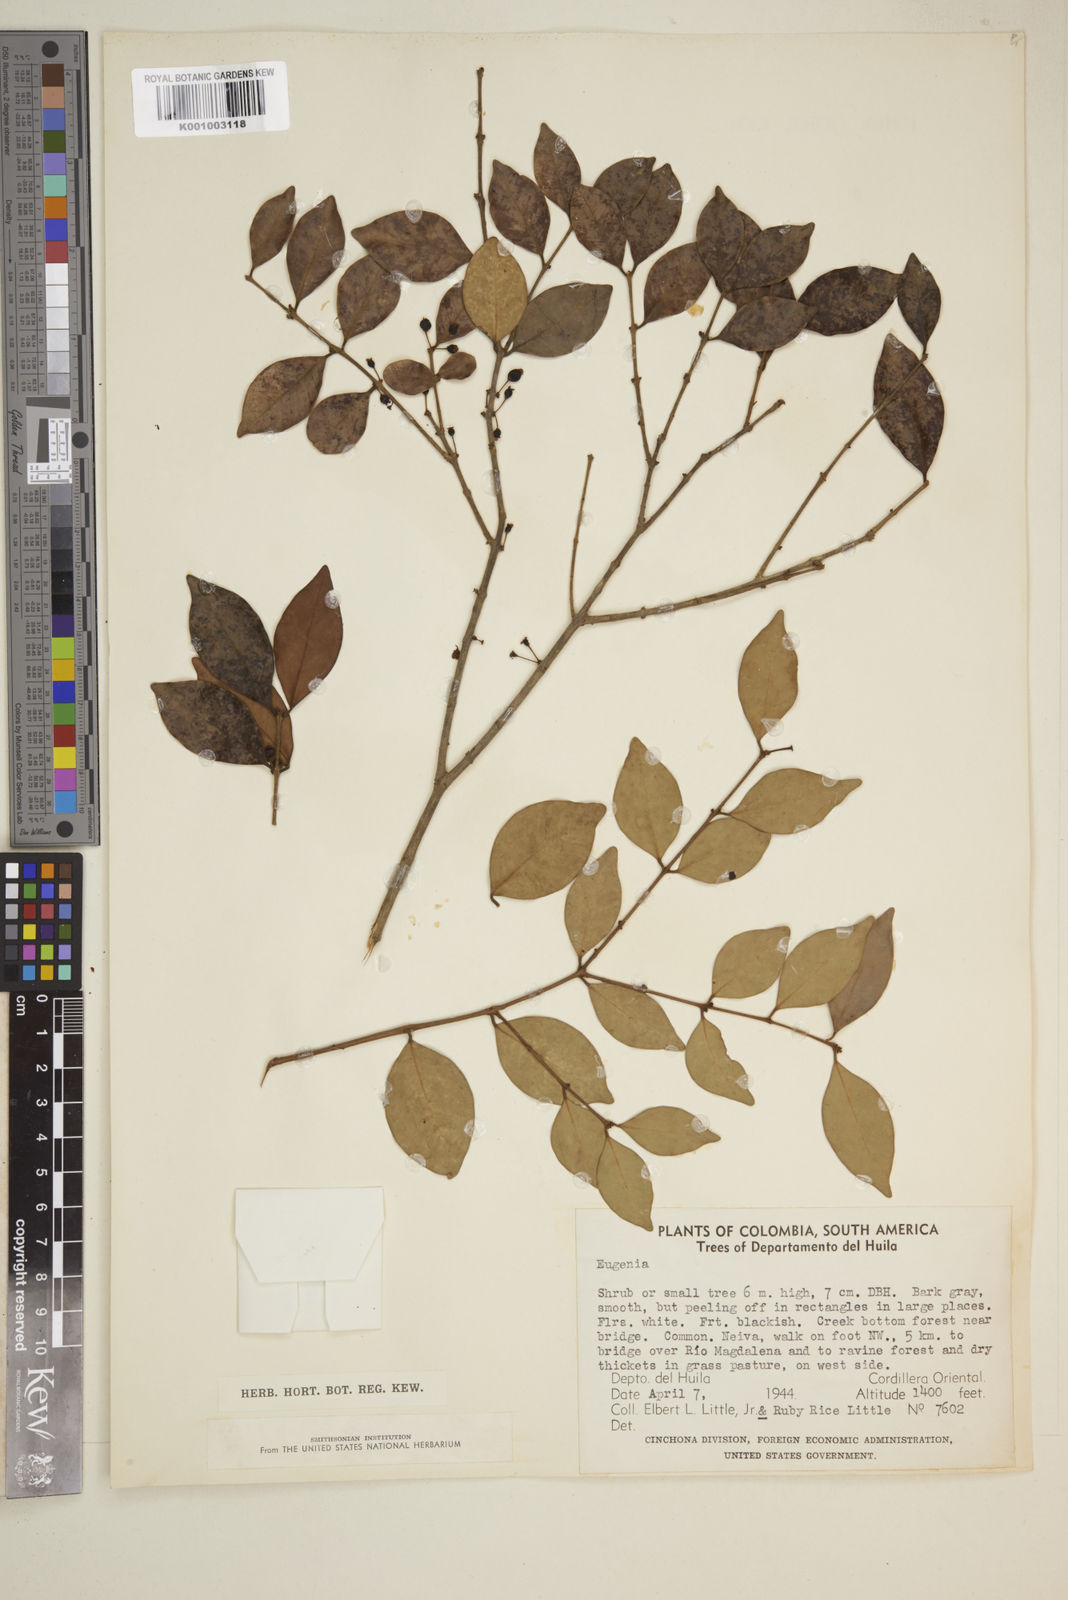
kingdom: Plantae
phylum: Tracheophyta
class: Magnoliopsida
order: Myrtales
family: Myrtaceae
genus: Eugenia
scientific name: Eugenia
